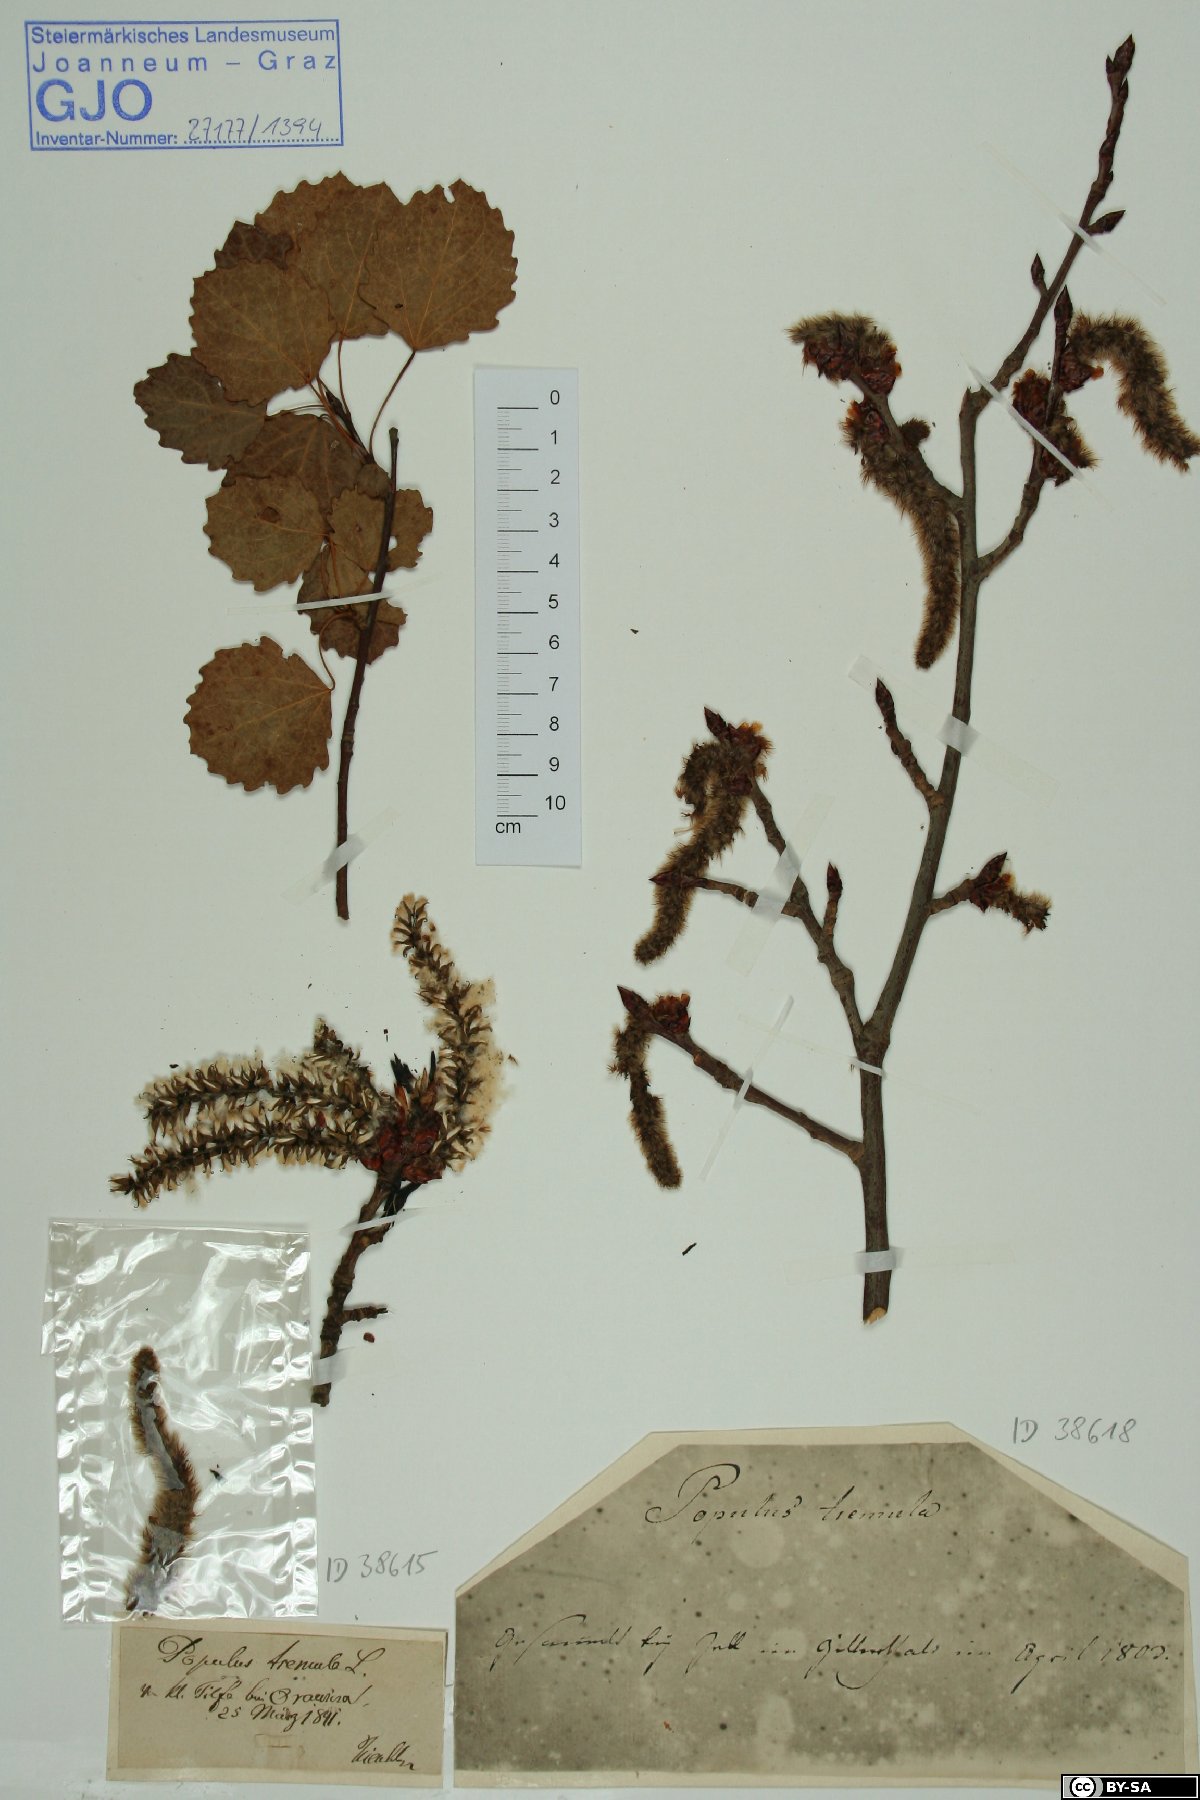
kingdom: Plantae
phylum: Tracheophyta
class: Magnoliopsida
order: Malpighiales
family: Salicaceae
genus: Populus
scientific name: Populus tremula
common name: European aspen
